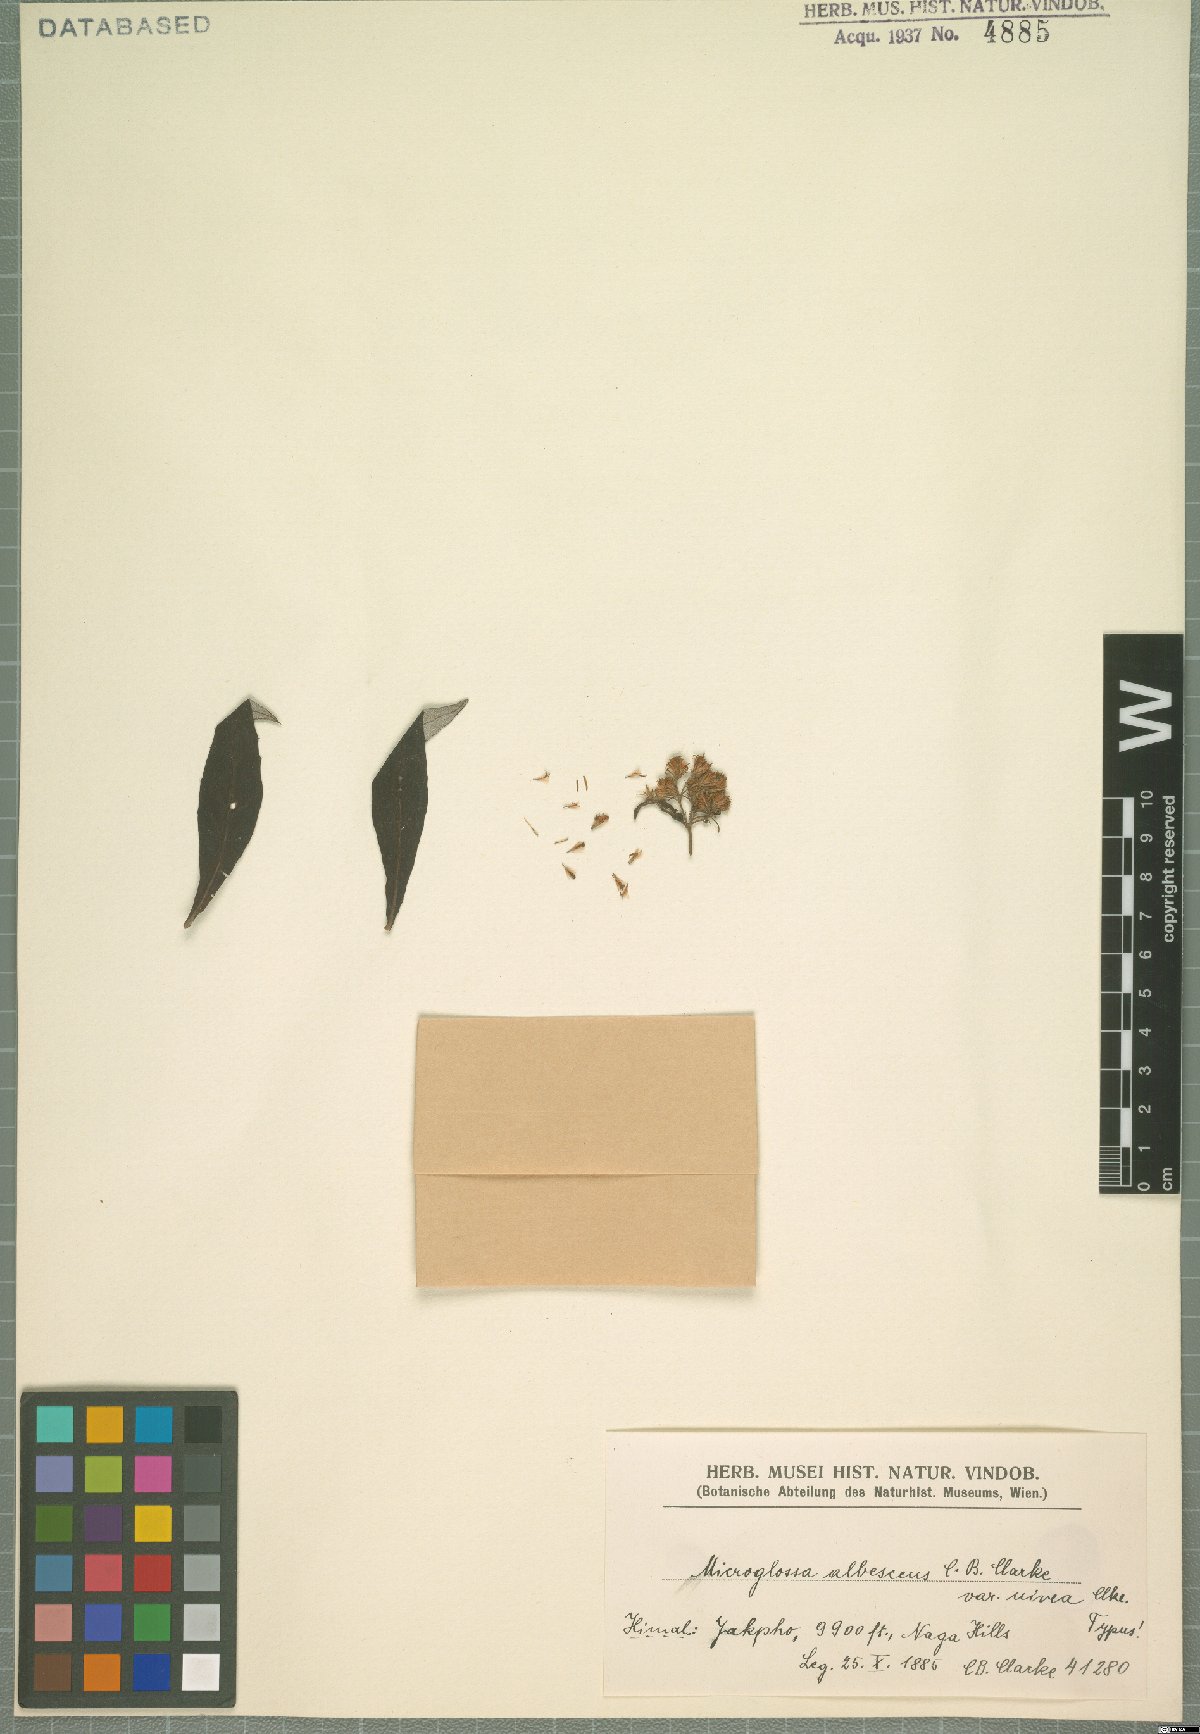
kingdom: Plantae
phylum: Tracheophyta
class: Magnoliopsida
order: Asterales
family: Asteraceae
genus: Sinosidus
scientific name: Sinosidus albescens
